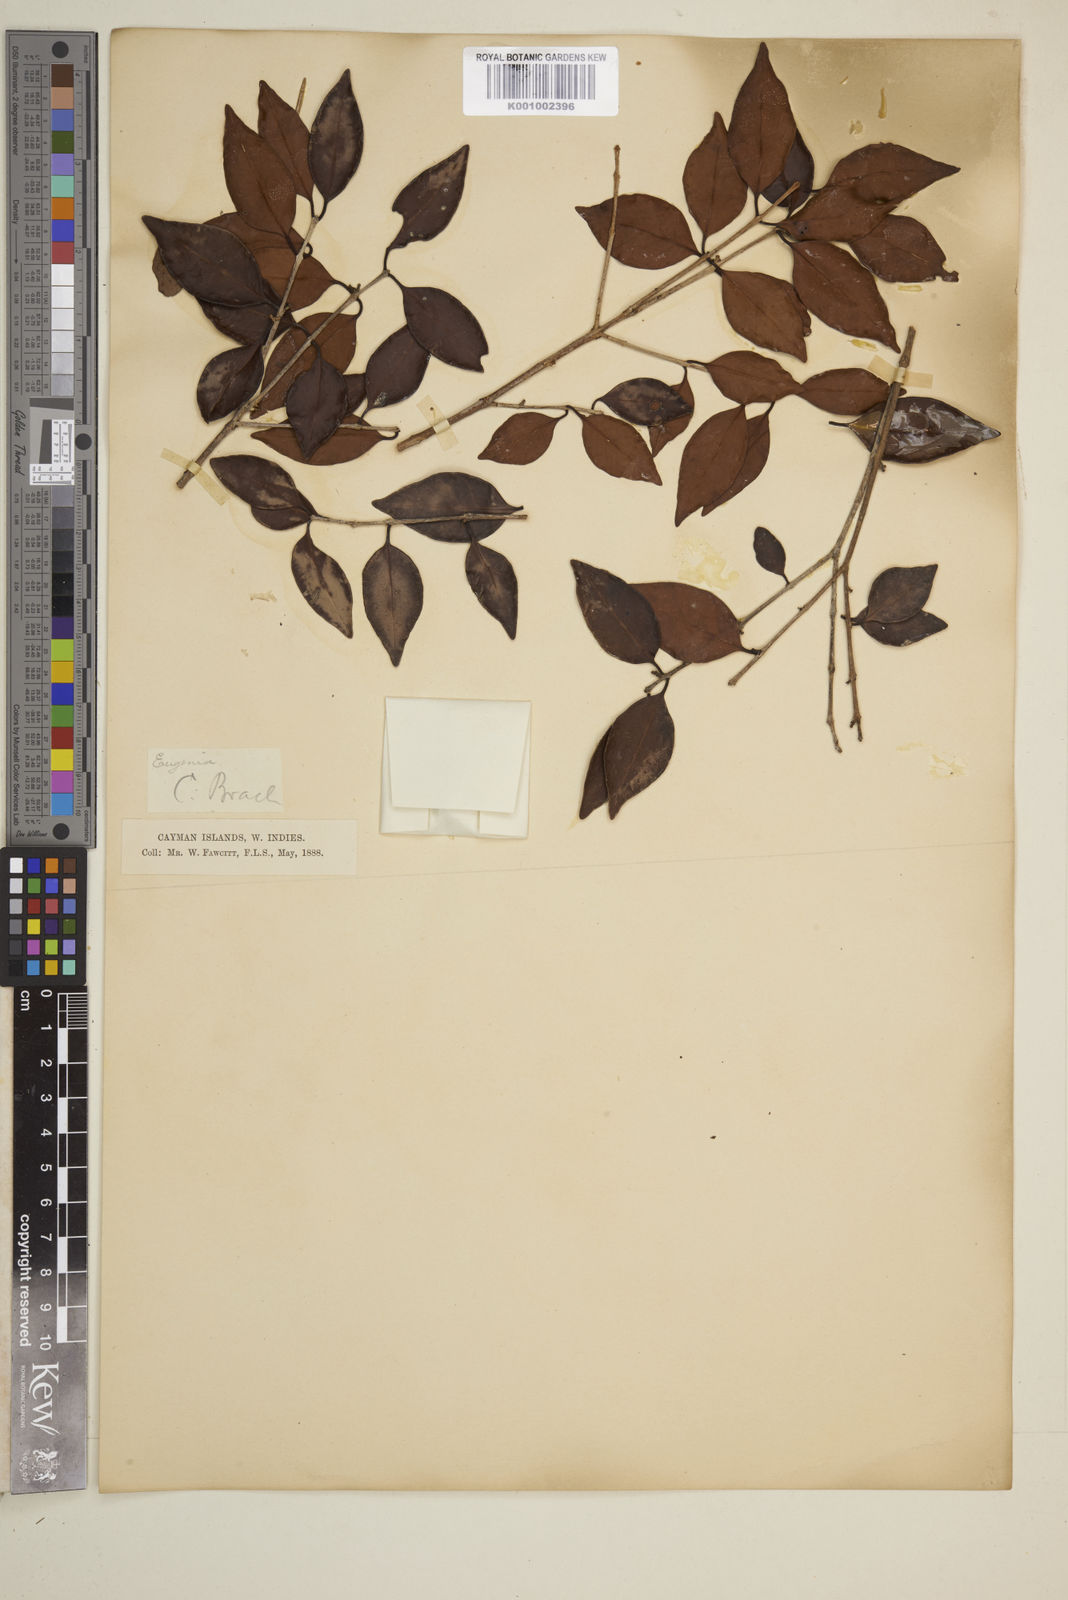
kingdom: Plantae
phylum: Tracheophyta
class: Magnoliopsida
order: Myrtales
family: Myrtaceae
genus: Eugenia
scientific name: Eugenia acapulcensis
